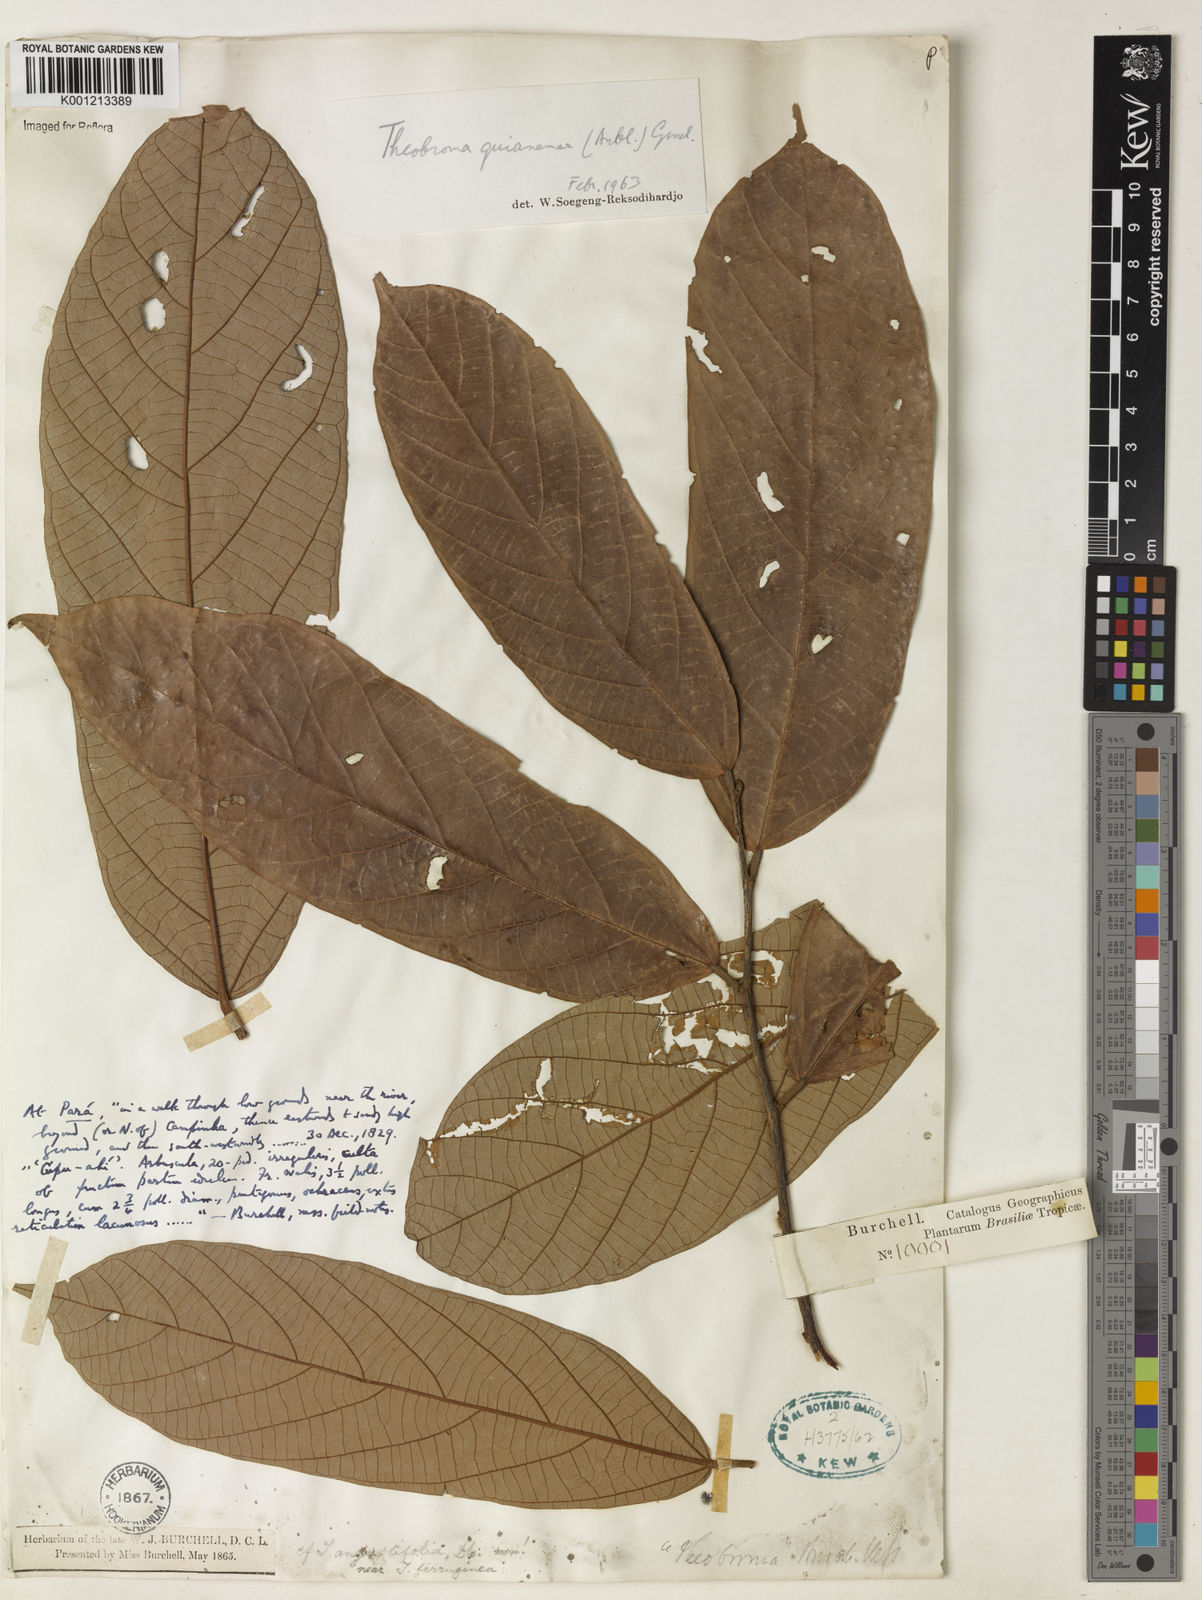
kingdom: Plantae
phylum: Tracheophyta
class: Magnoliopsida
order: Malvales
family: Malvaceae
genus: Theobroma
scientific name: Theobroma subincanum
